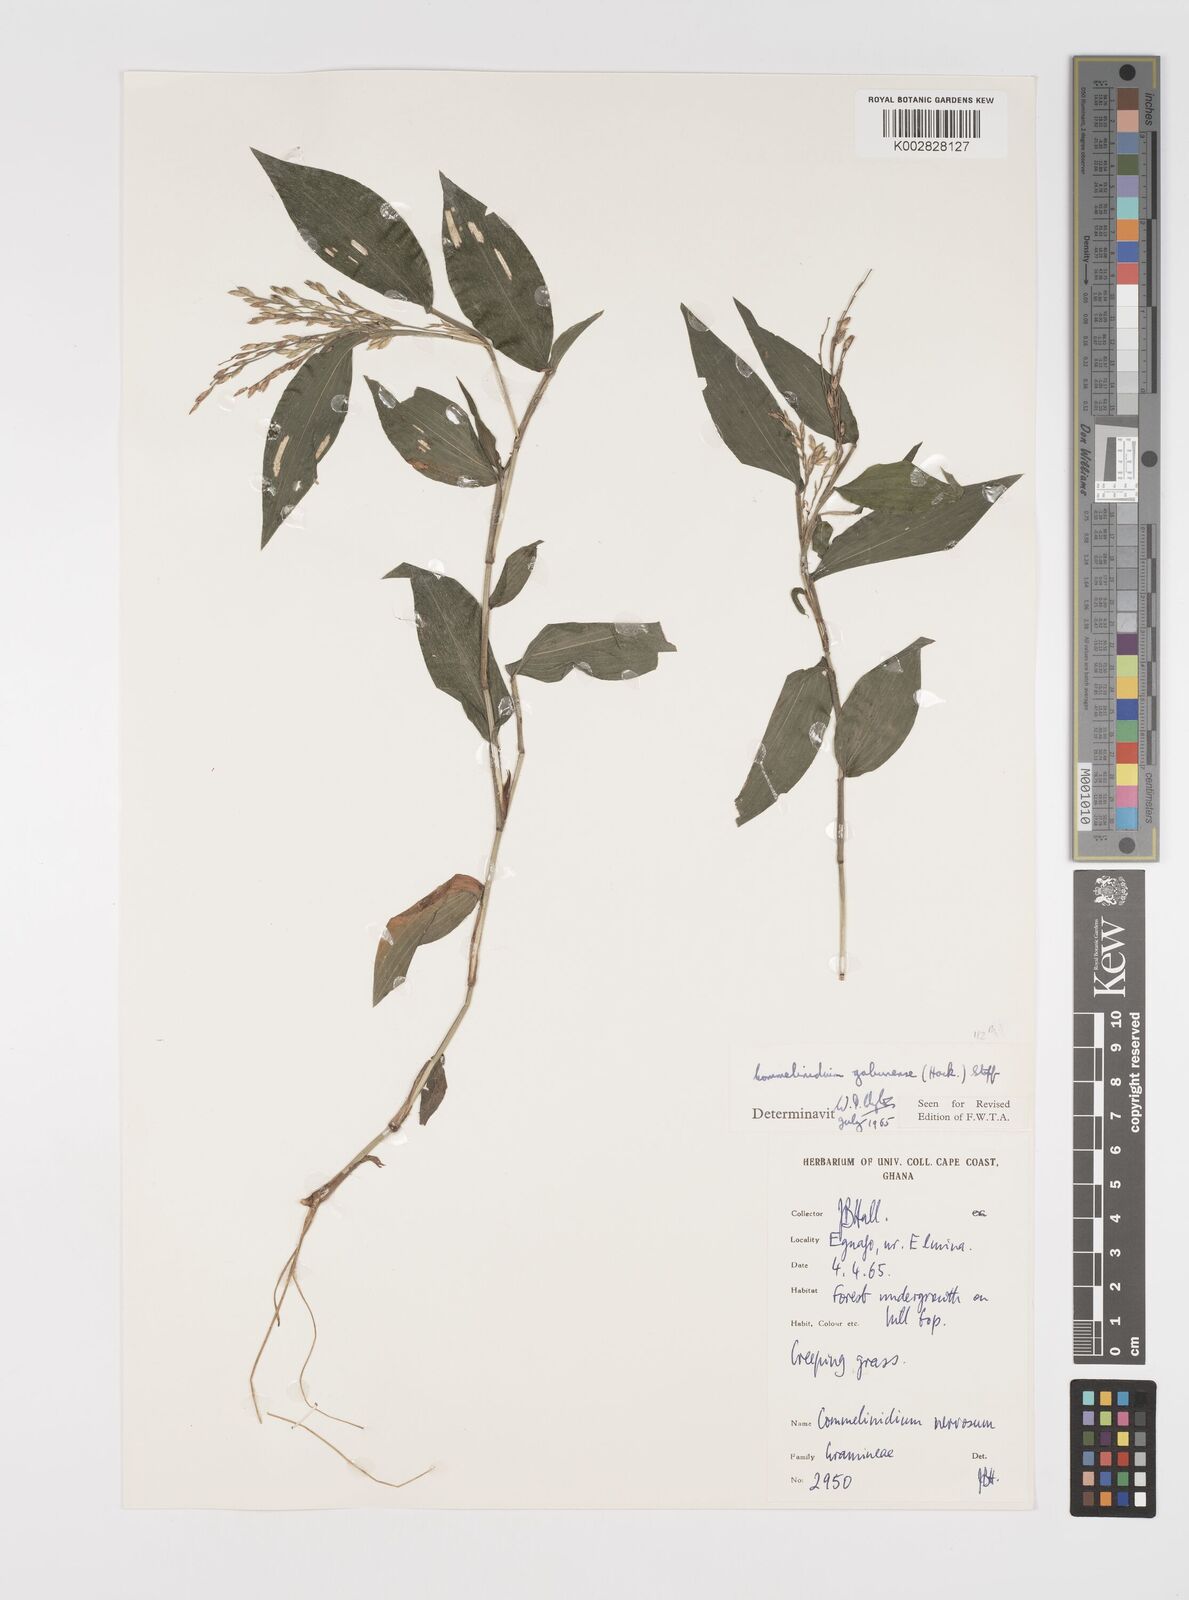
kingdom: Plantae
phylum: Tracheophyta
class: Liliopsida
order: Poales
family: Poaceae
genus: Acroceras
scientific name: Acroceras gabunense
